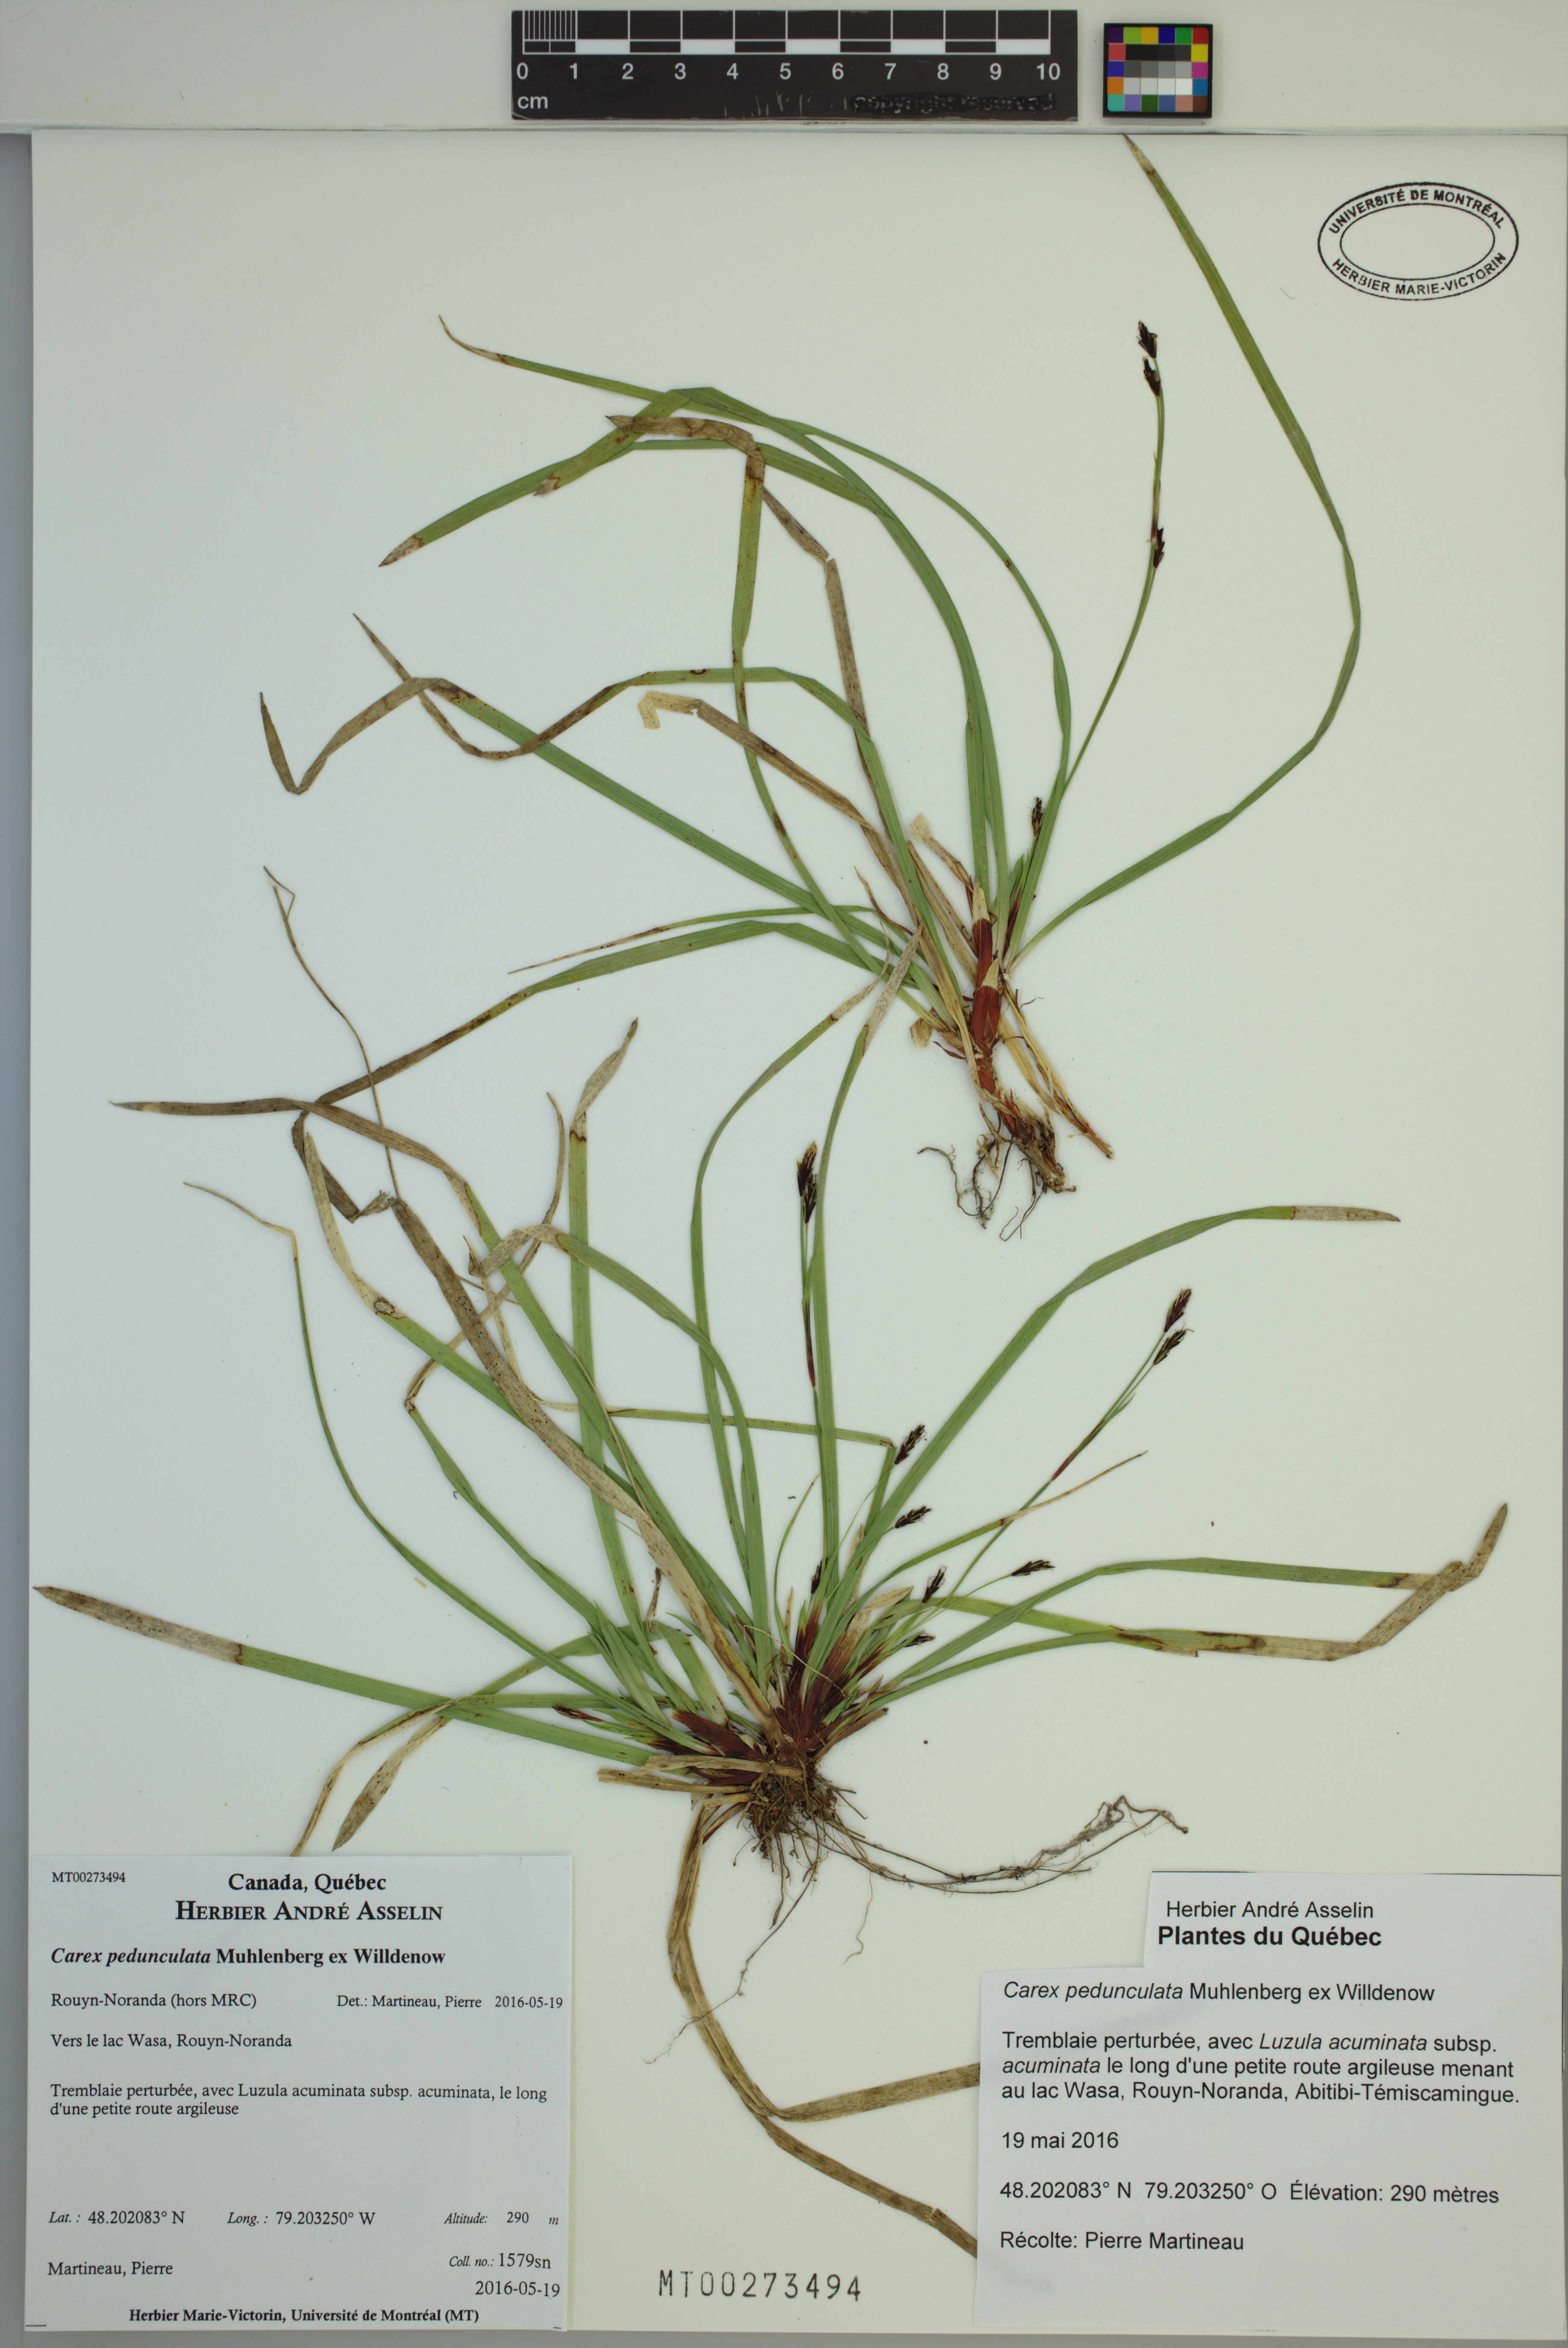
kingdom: Plantae
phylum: Tracheophyta
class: Liliopsida
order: Poales
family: Cyperaceae
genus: Carex
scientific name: Carex pedunculata
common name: Pedunculate sedge
